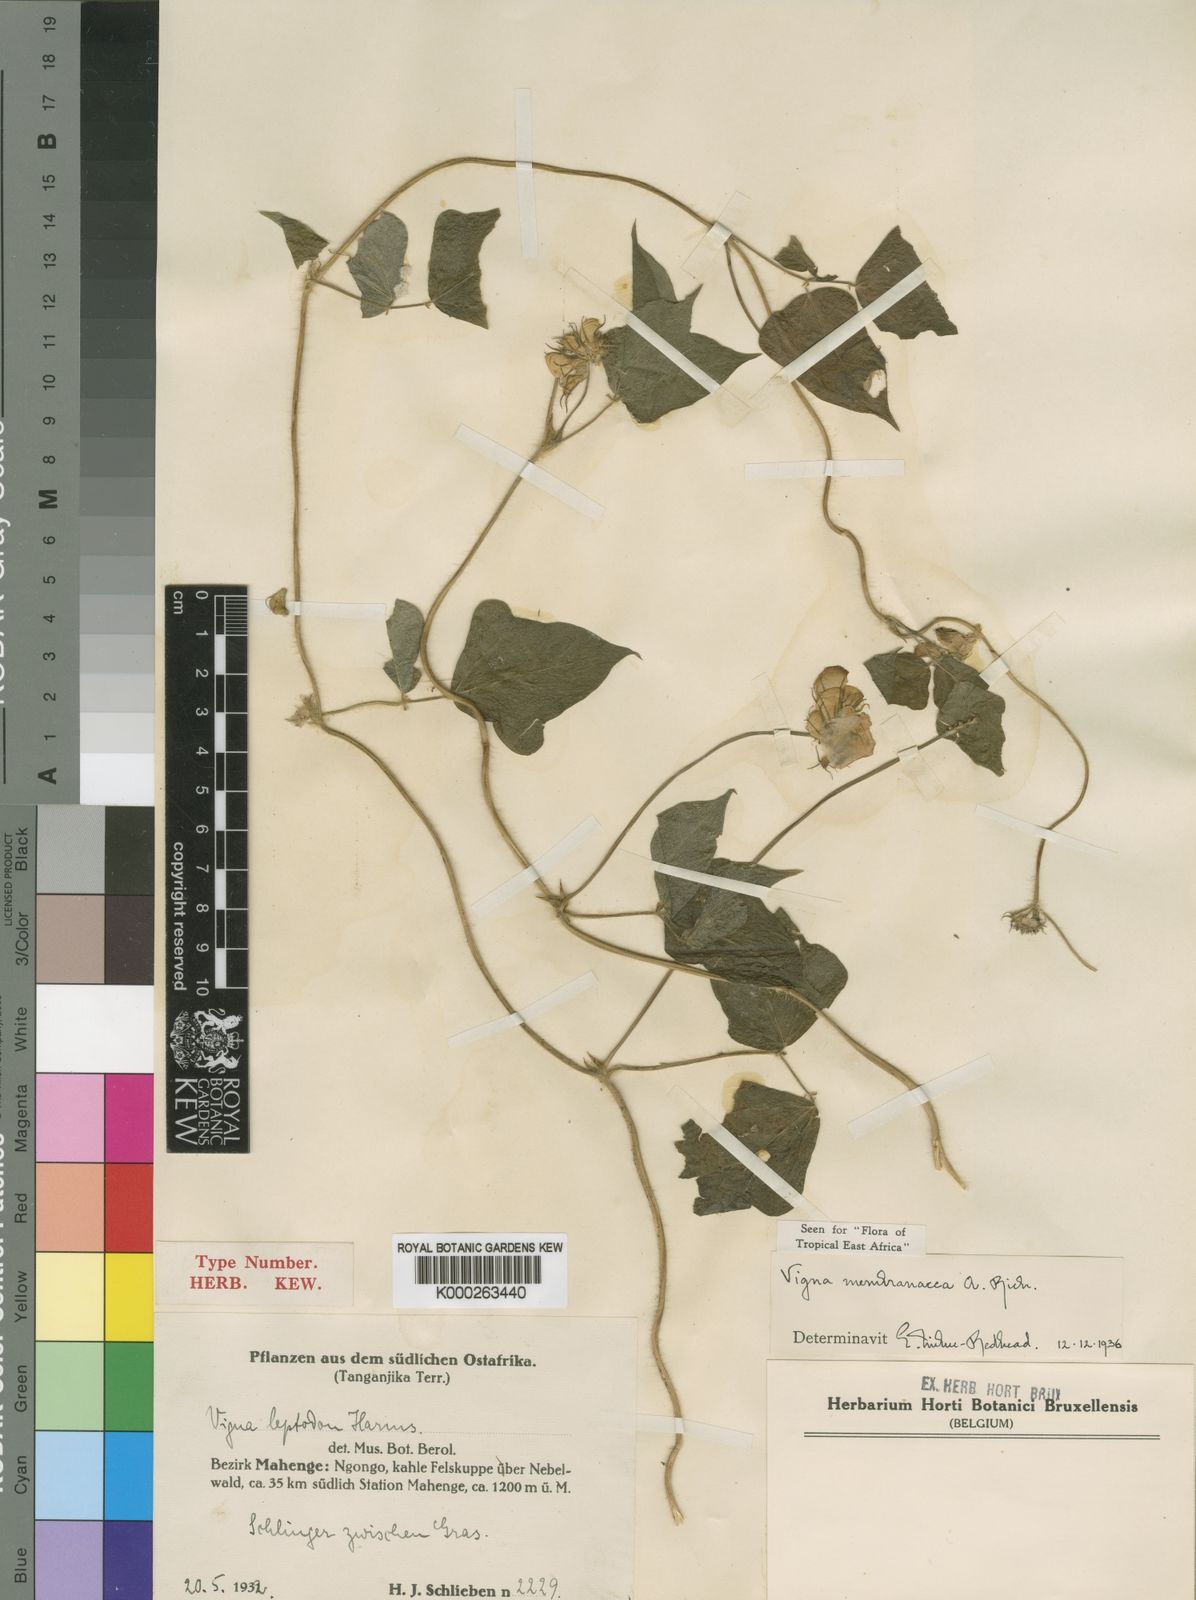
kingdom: Plantae
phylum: Tracheophyta
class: Magnoliopsida
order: Fabales
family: Fabaceae
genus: Vigna
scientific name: Vigna membranacea
